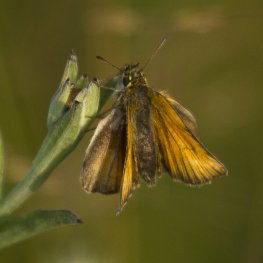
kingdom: Animalia
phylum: Arthropoda
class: Insecta
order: Lepidoptera
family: Hesperiidae
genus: Thymelicus
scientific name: Thymelicus lineola
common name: European Skipper
